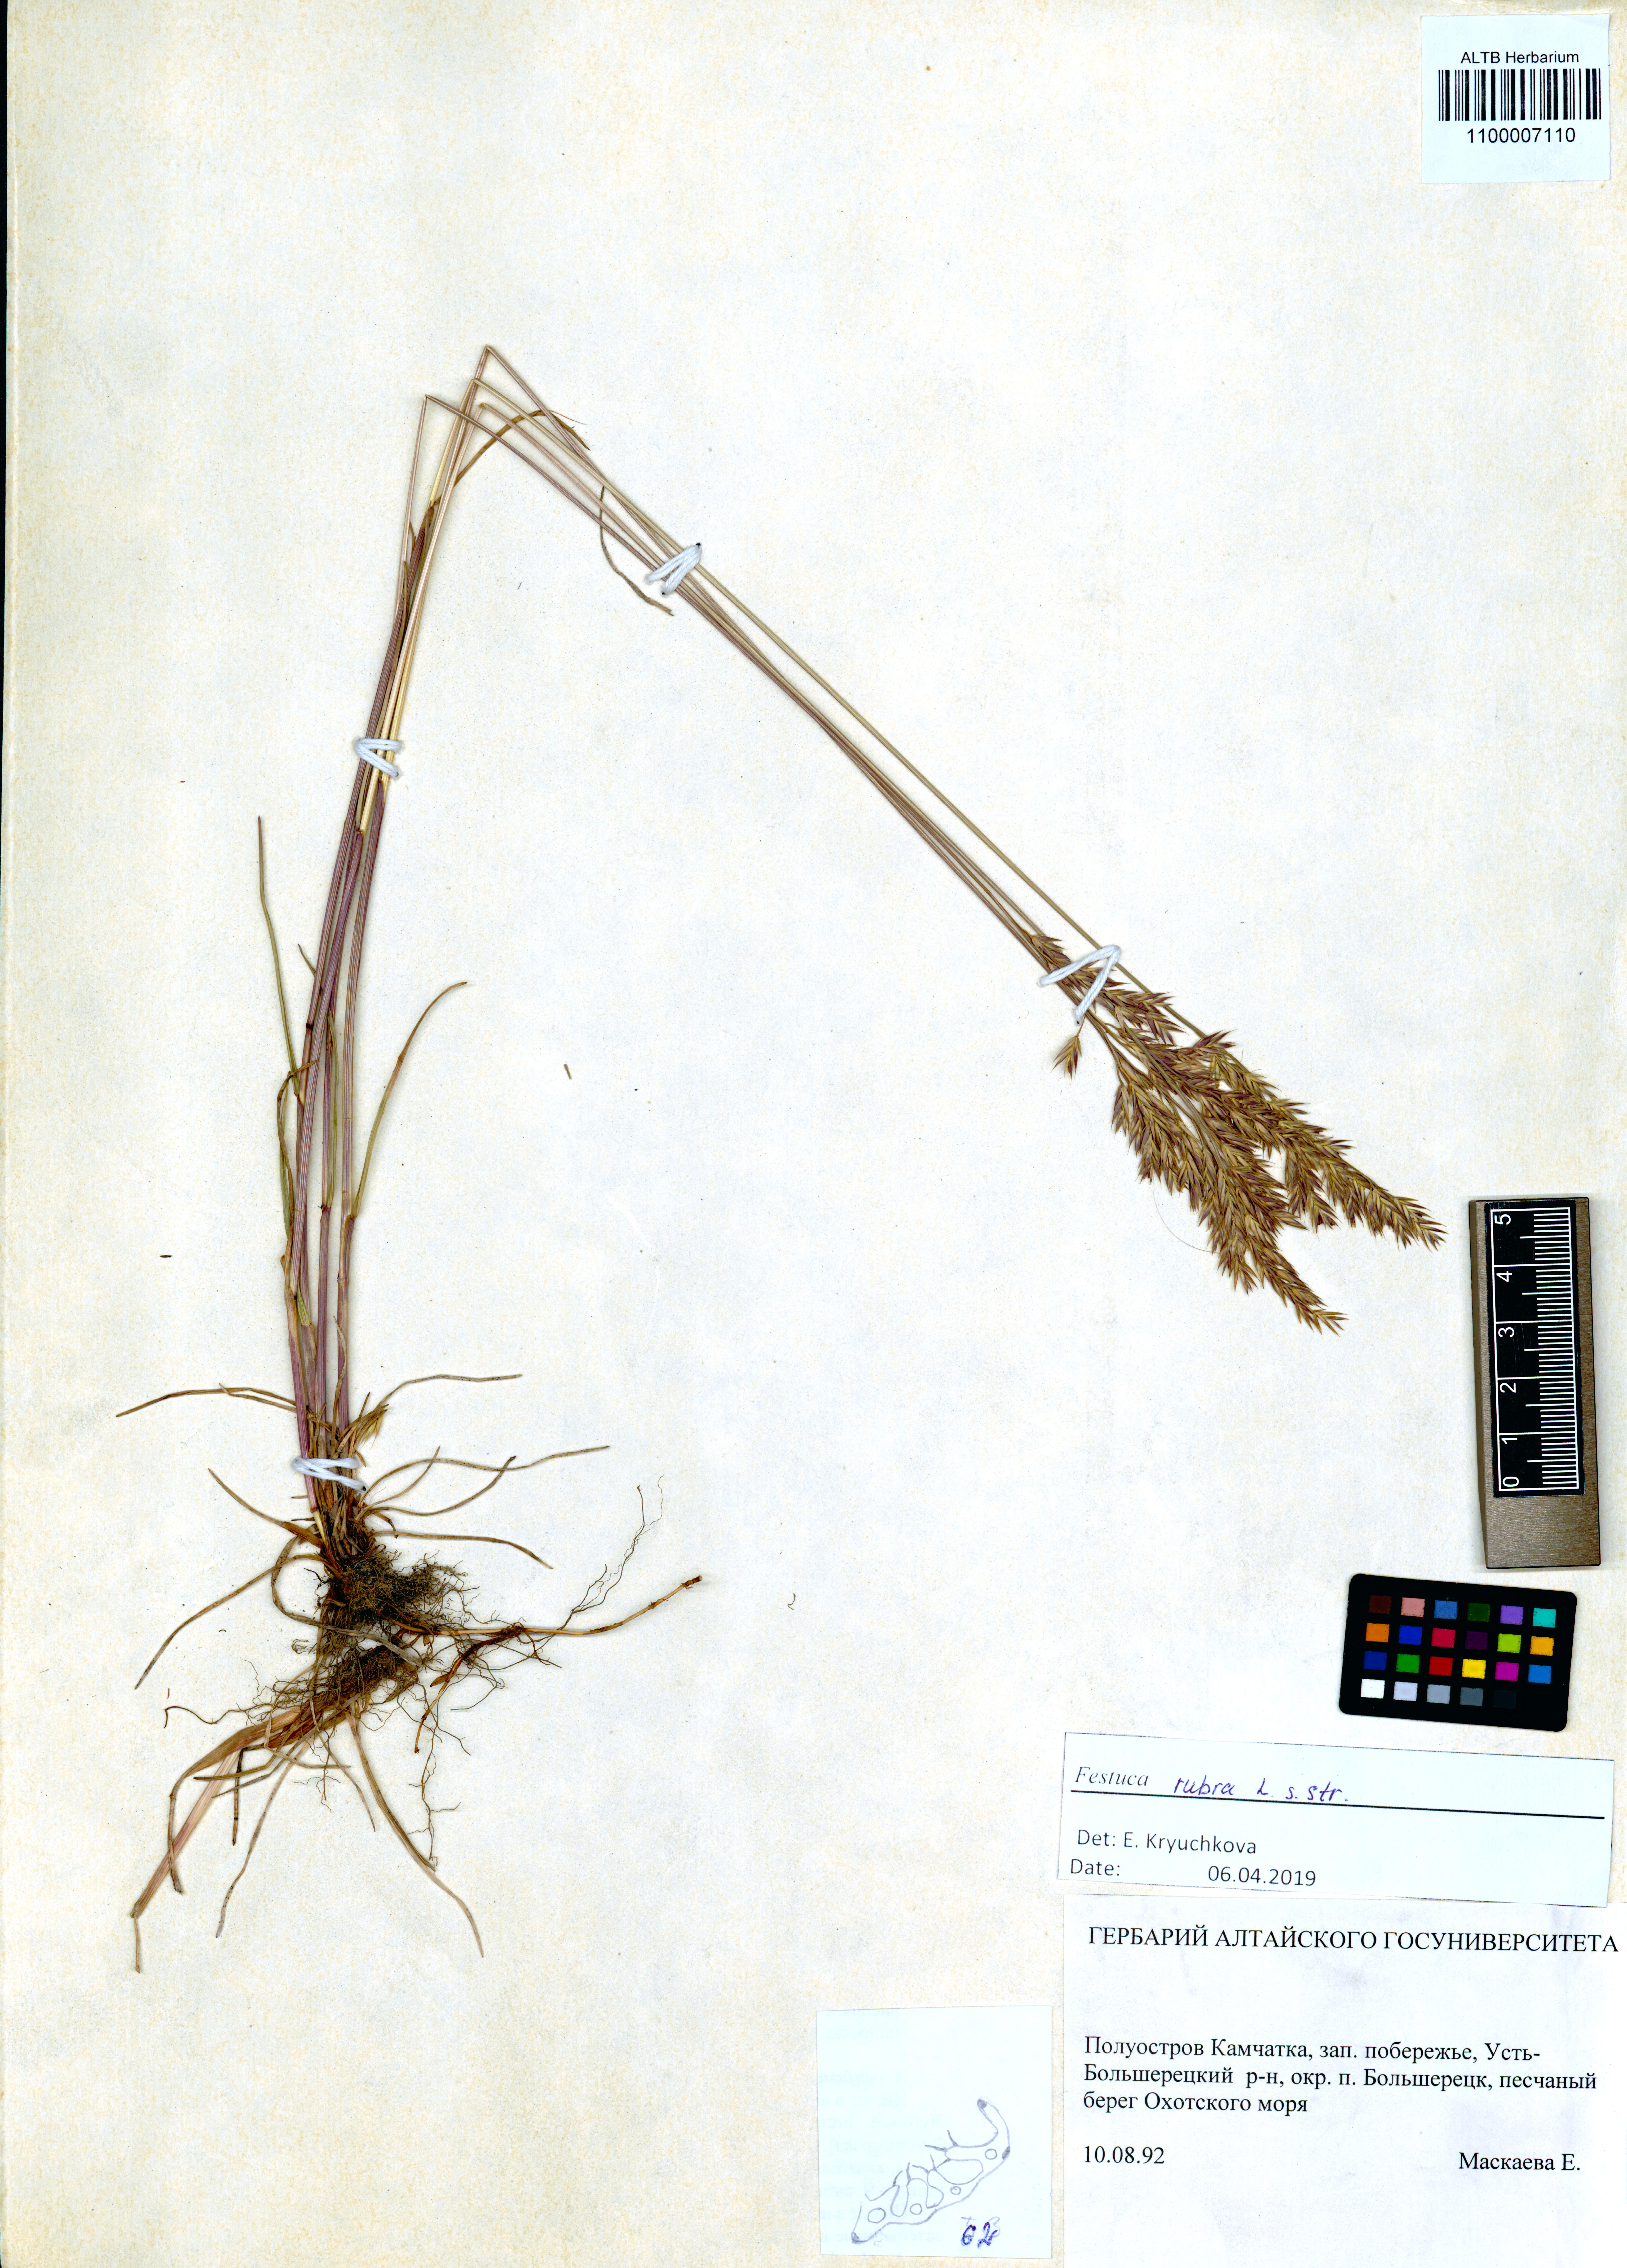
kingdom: Plantae
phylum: Tracheophyta
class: Liliopsida
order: Poales
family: Poaceae
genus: Festuca
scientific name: Festuca rubra
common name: Red fescue
